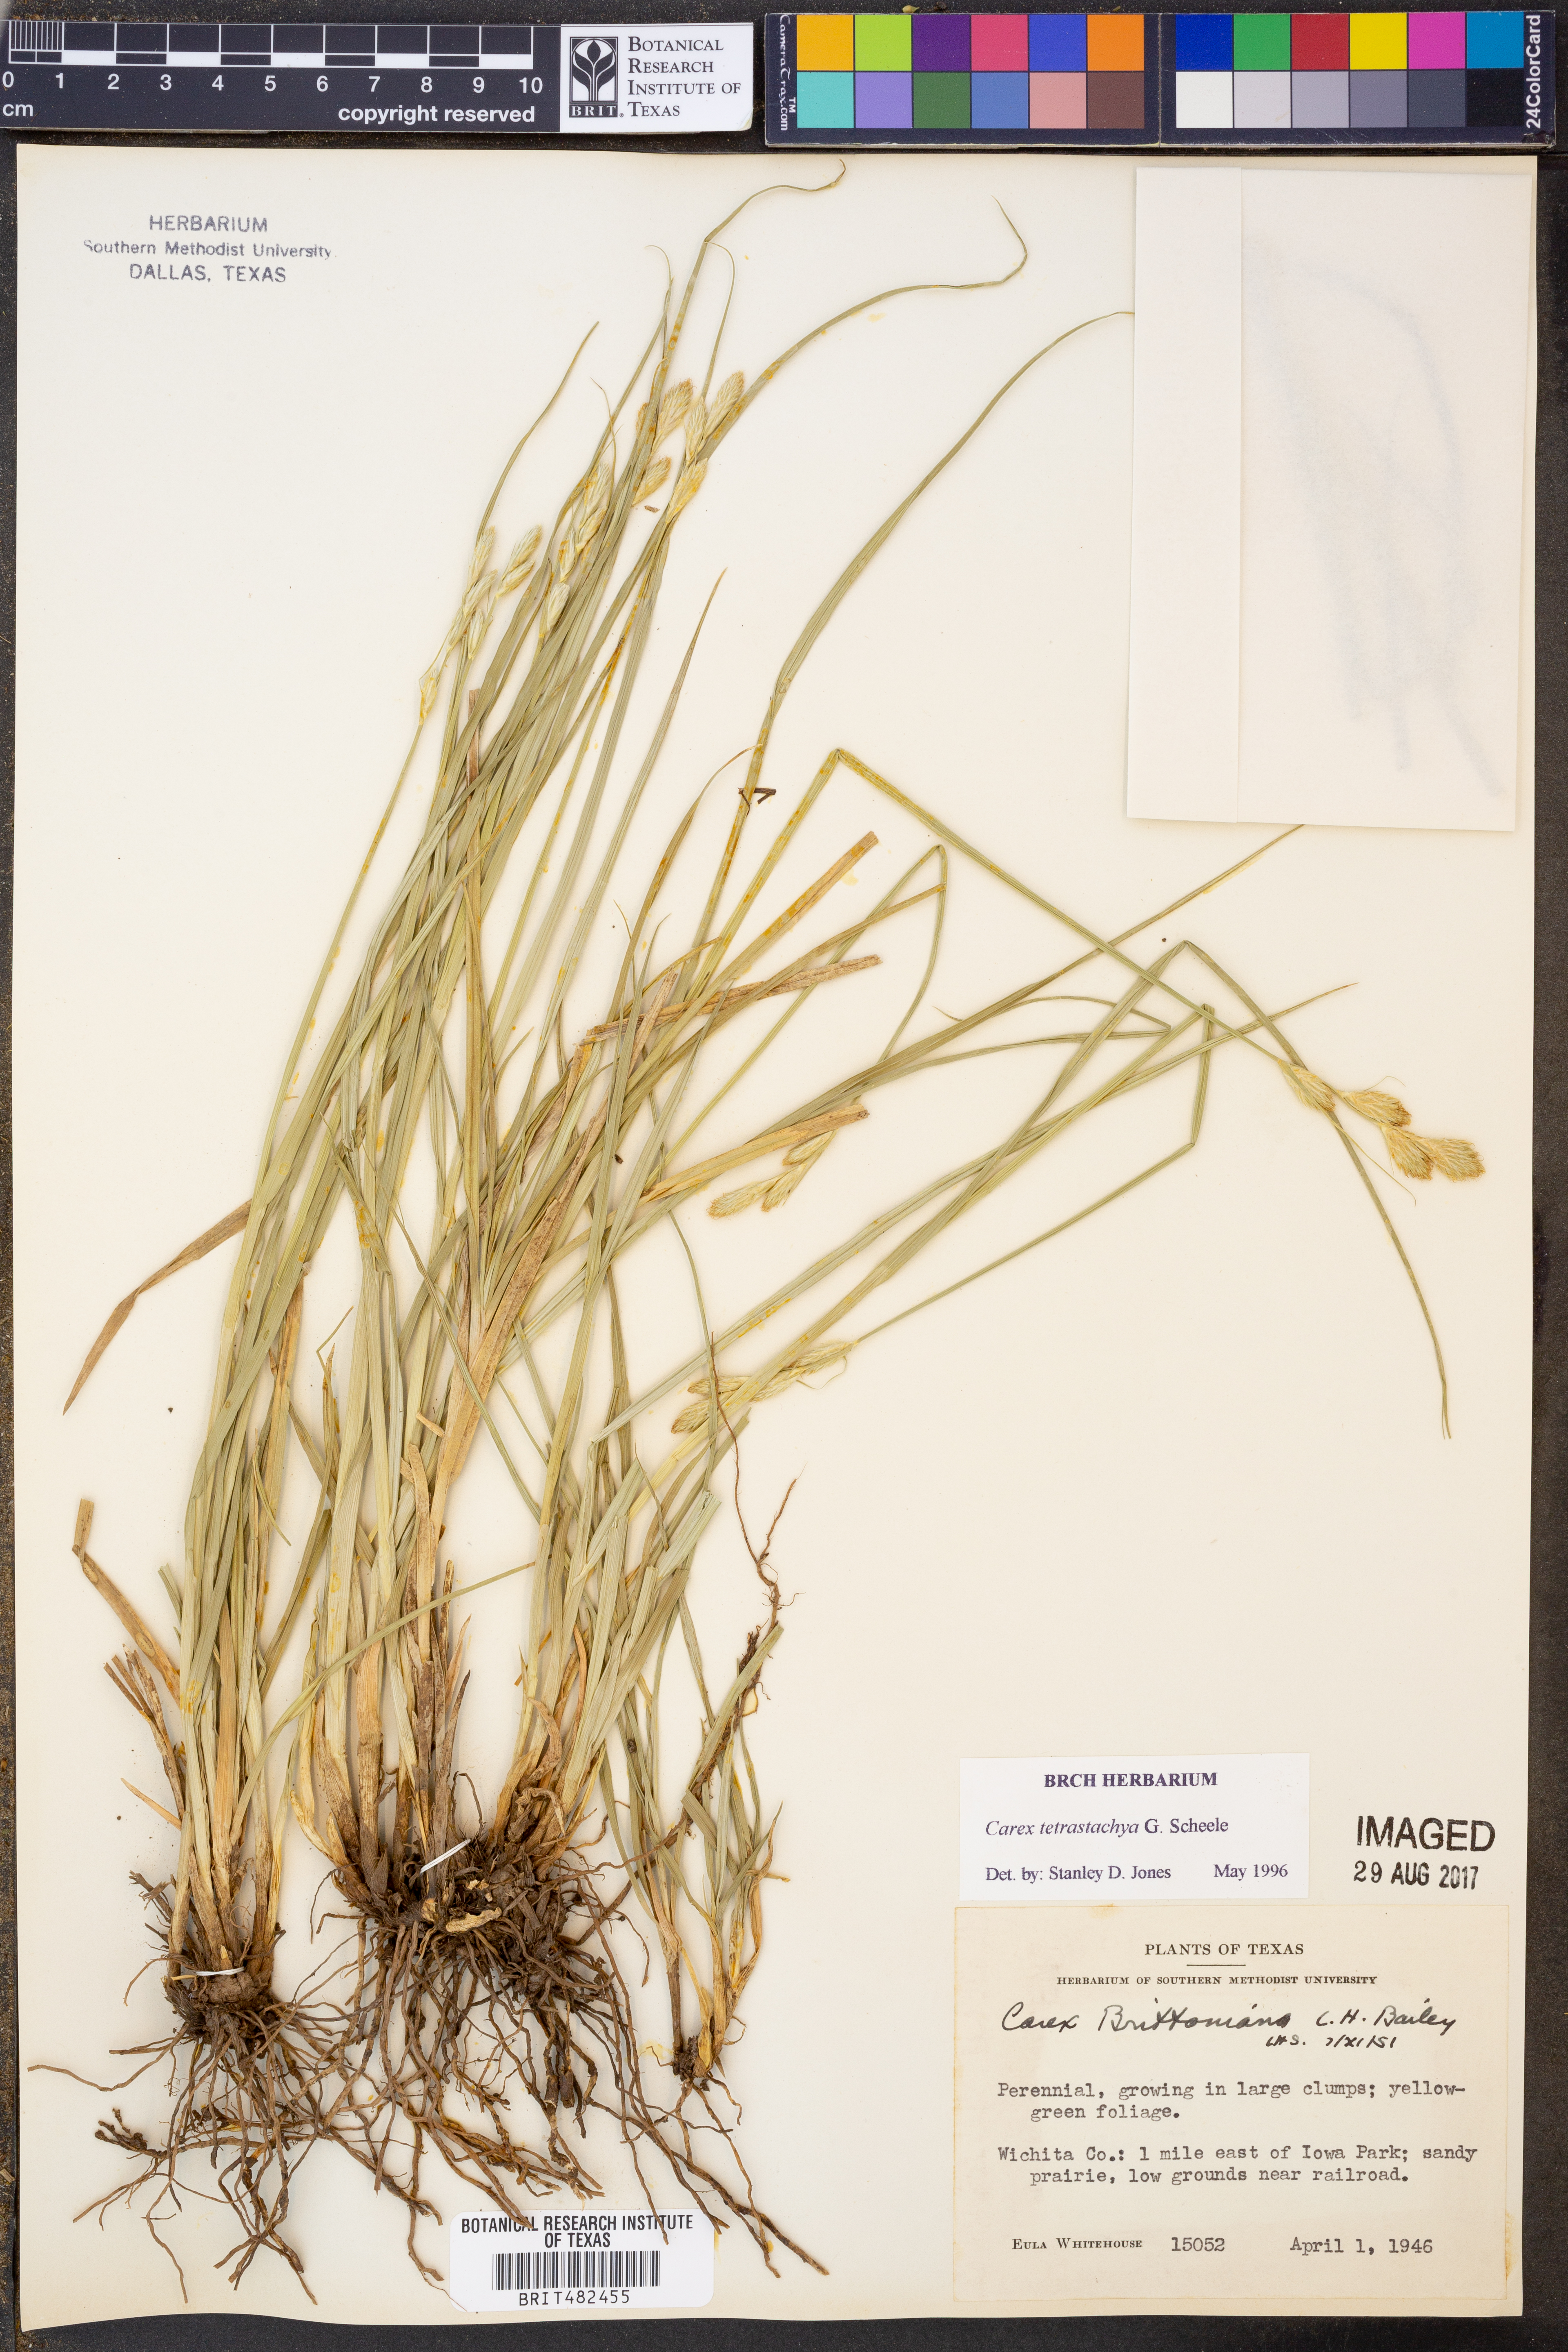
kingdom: Plantae
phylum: Tracheophyta
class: Liliopsida
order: Poales
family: Cyperaceae
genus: Carex
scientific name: Carex tetrastachya
